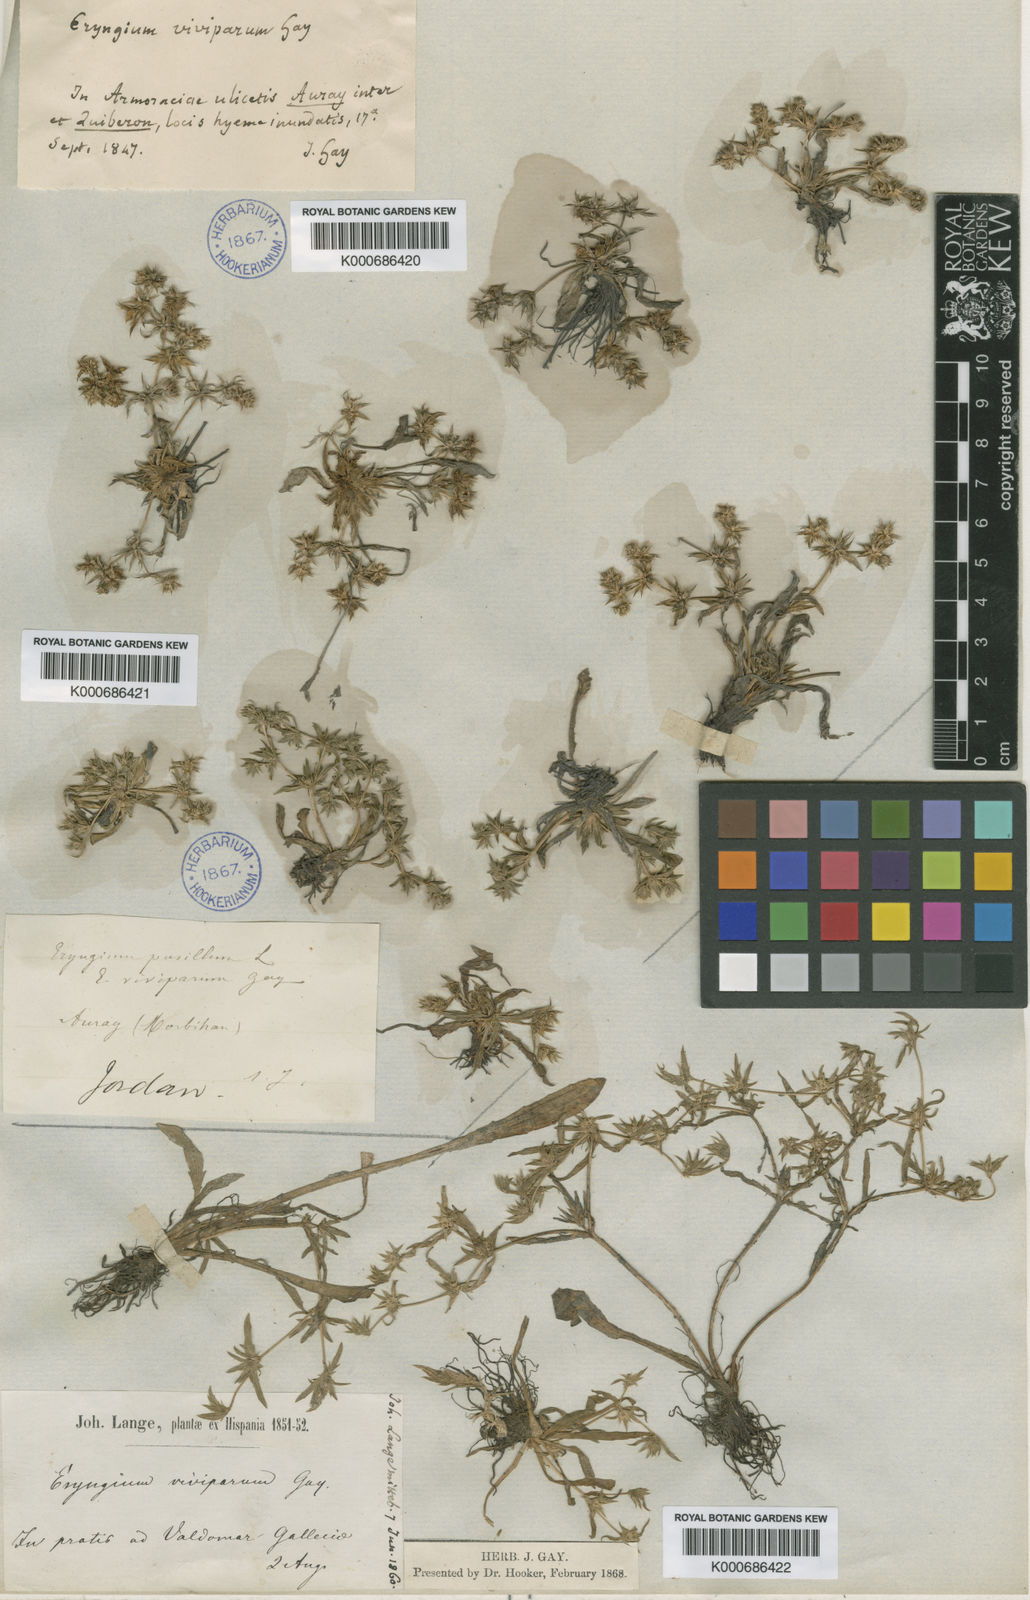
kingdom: Plantae
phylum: Tracheophyta
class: Magnoliopsida
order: Apiales
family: Apiaceae
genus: Eryngium
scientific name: Eryngium viviparum
